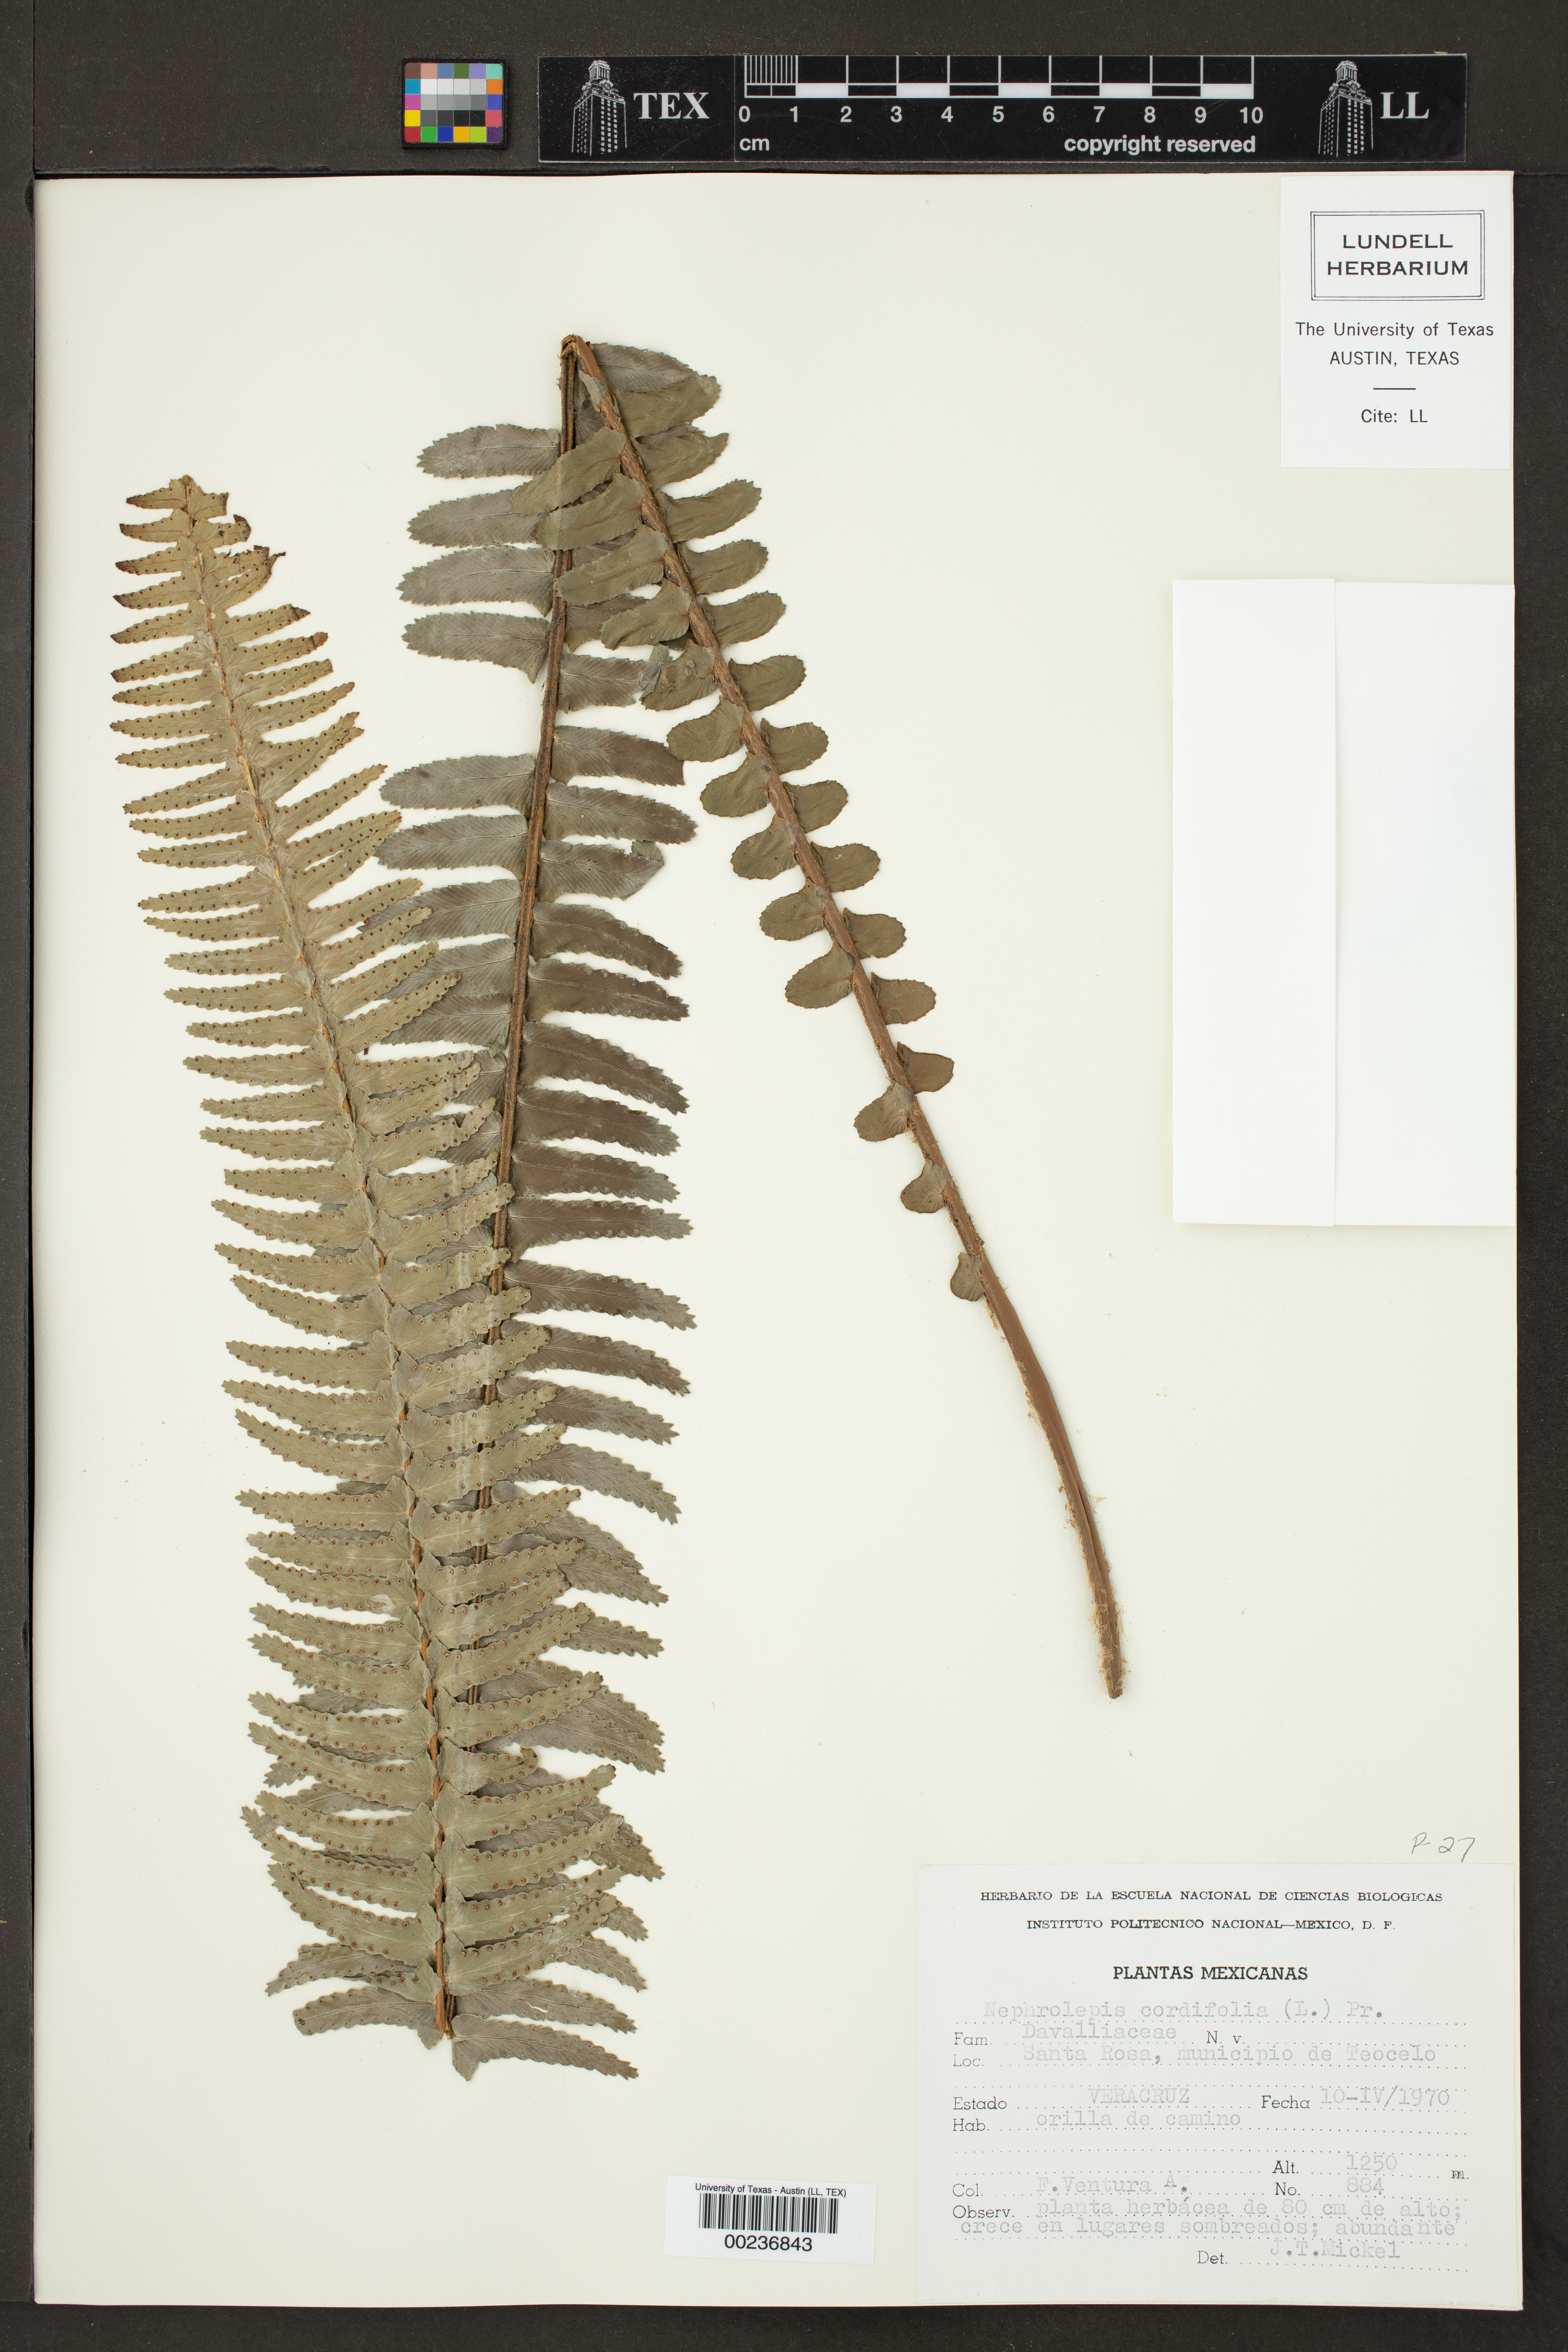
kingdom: Plantae
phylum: Tracheophyta
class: Polypodiopsida
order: Polypodiales
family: Nephrolepidaceae
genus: Nephrolepis
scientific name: Nephrolepis cordifolia
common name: Narrow swordfern
